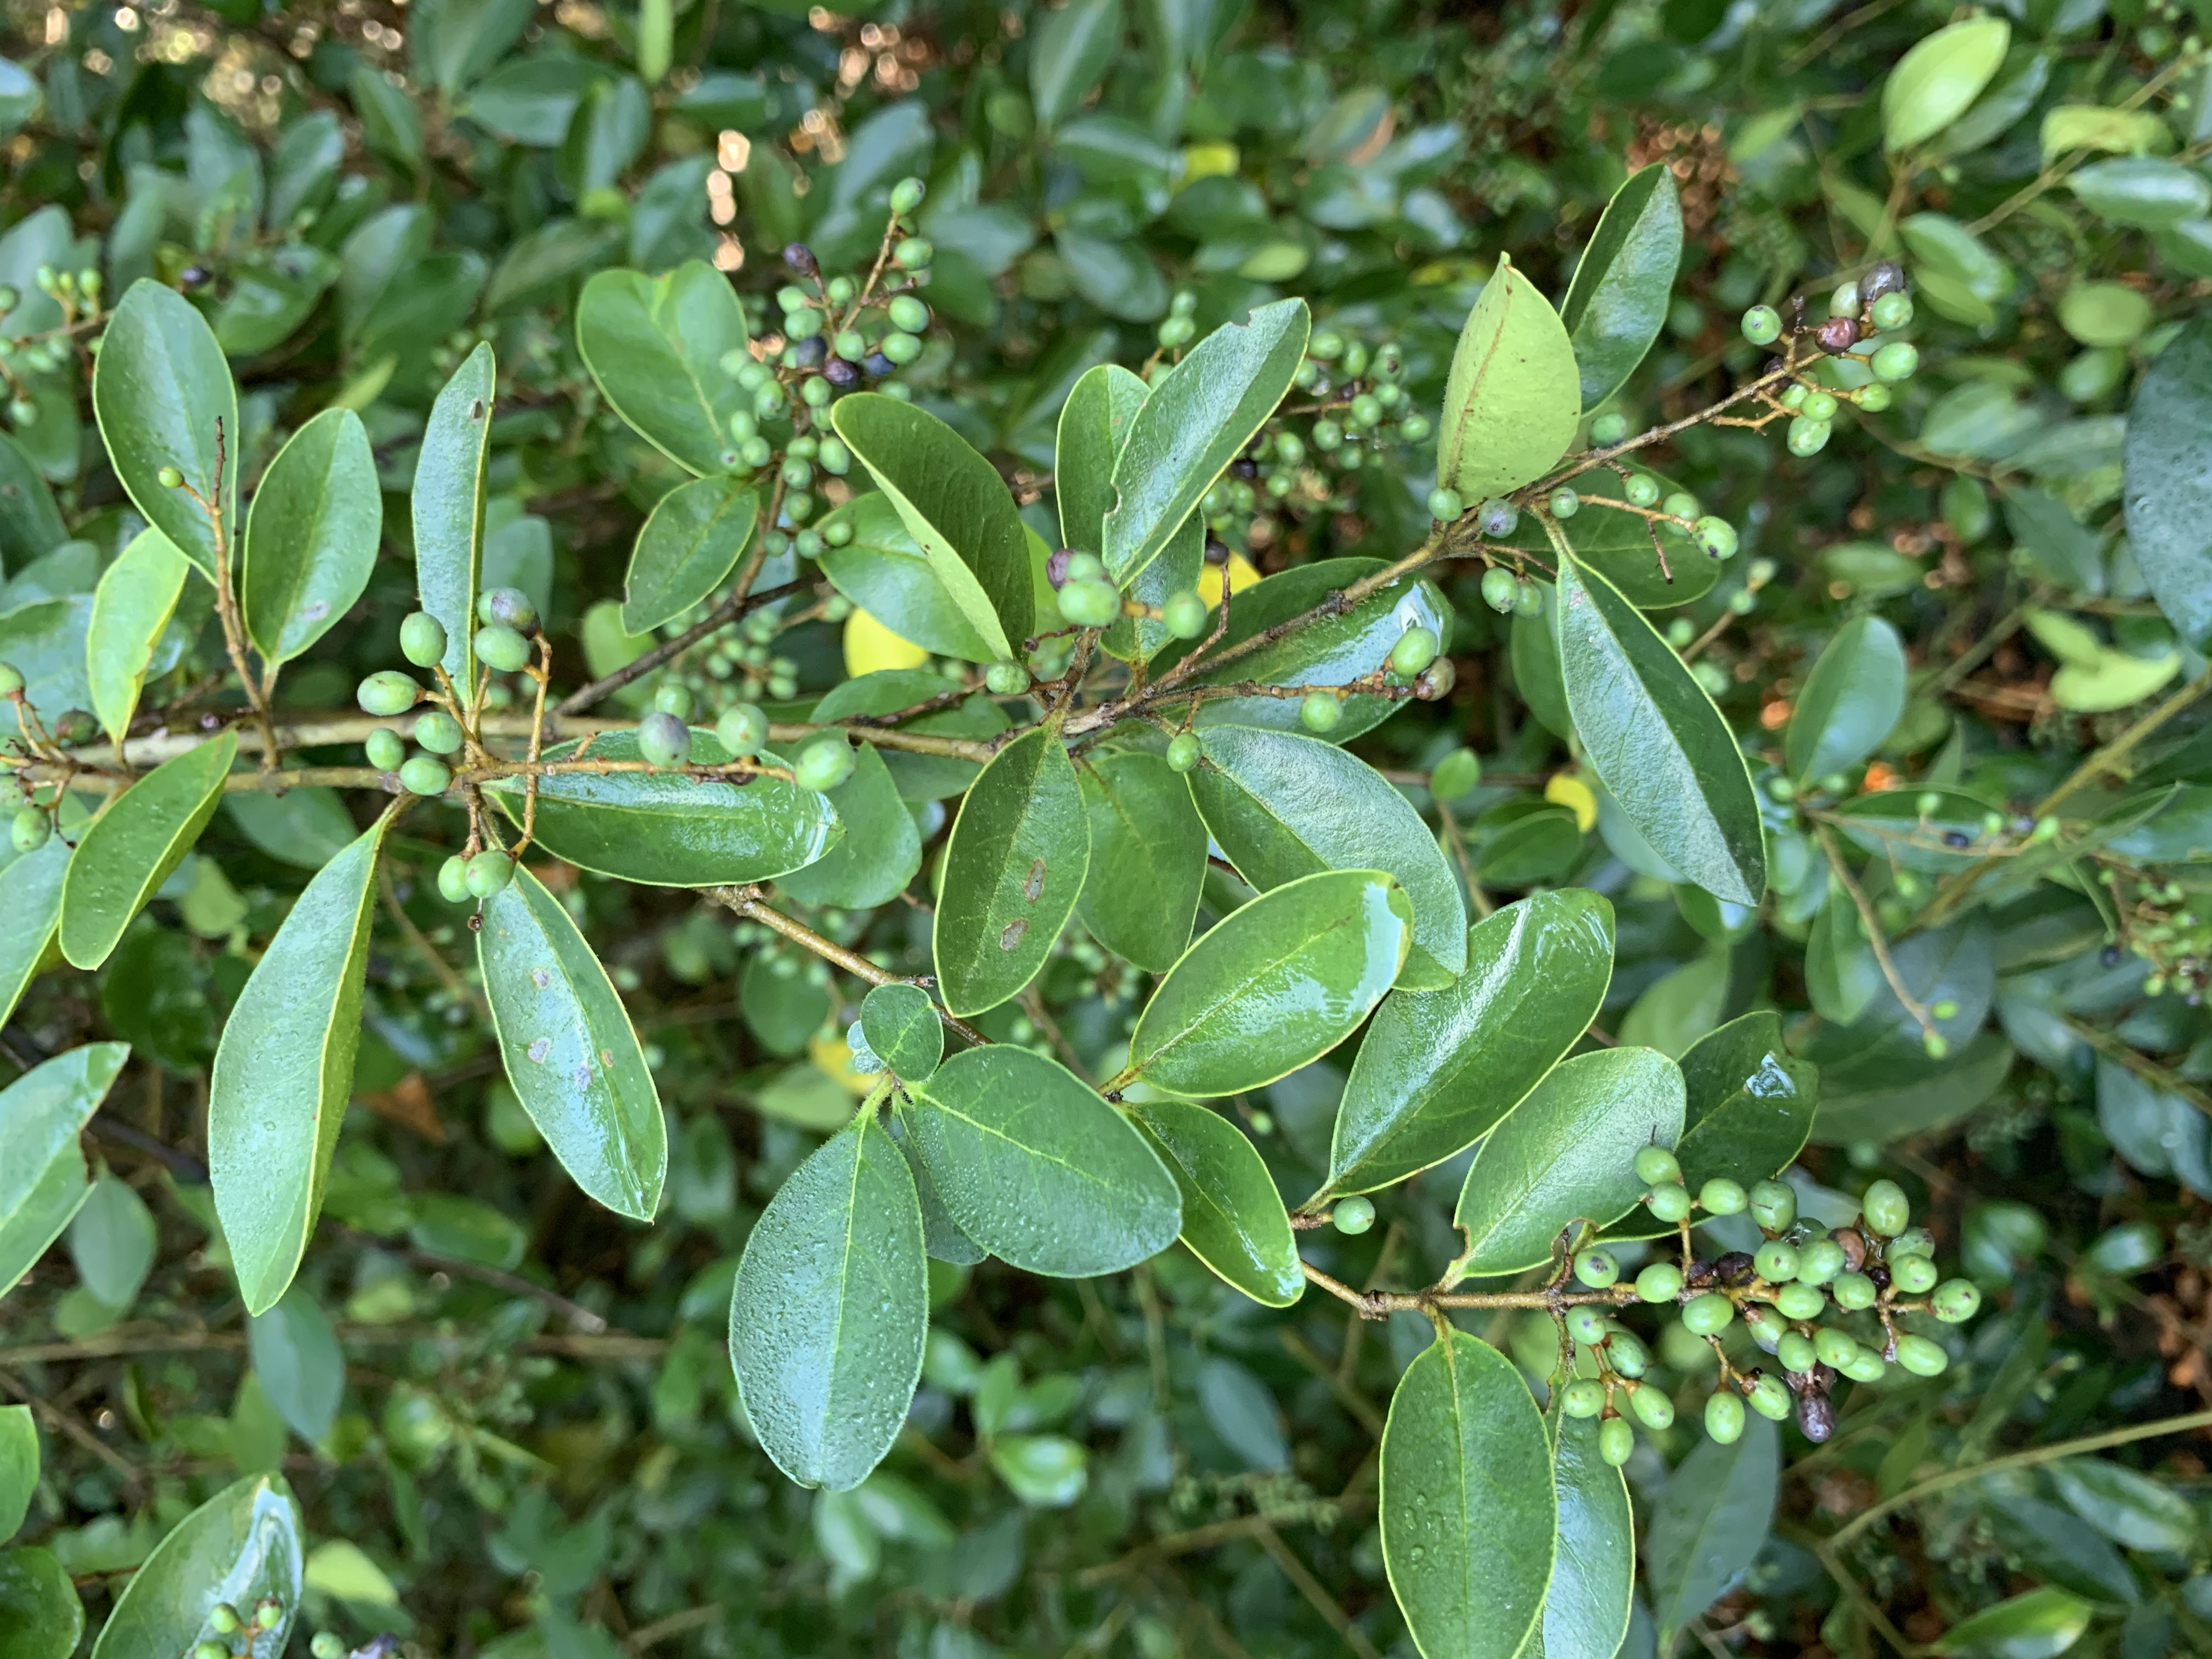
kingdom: Plantae
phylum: Tracheophyta
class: Magnoliopsida
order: Lamiales
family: Oleaceae
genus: Ligustrum
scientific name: Ligustrum sinense
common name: Chinese Privet
